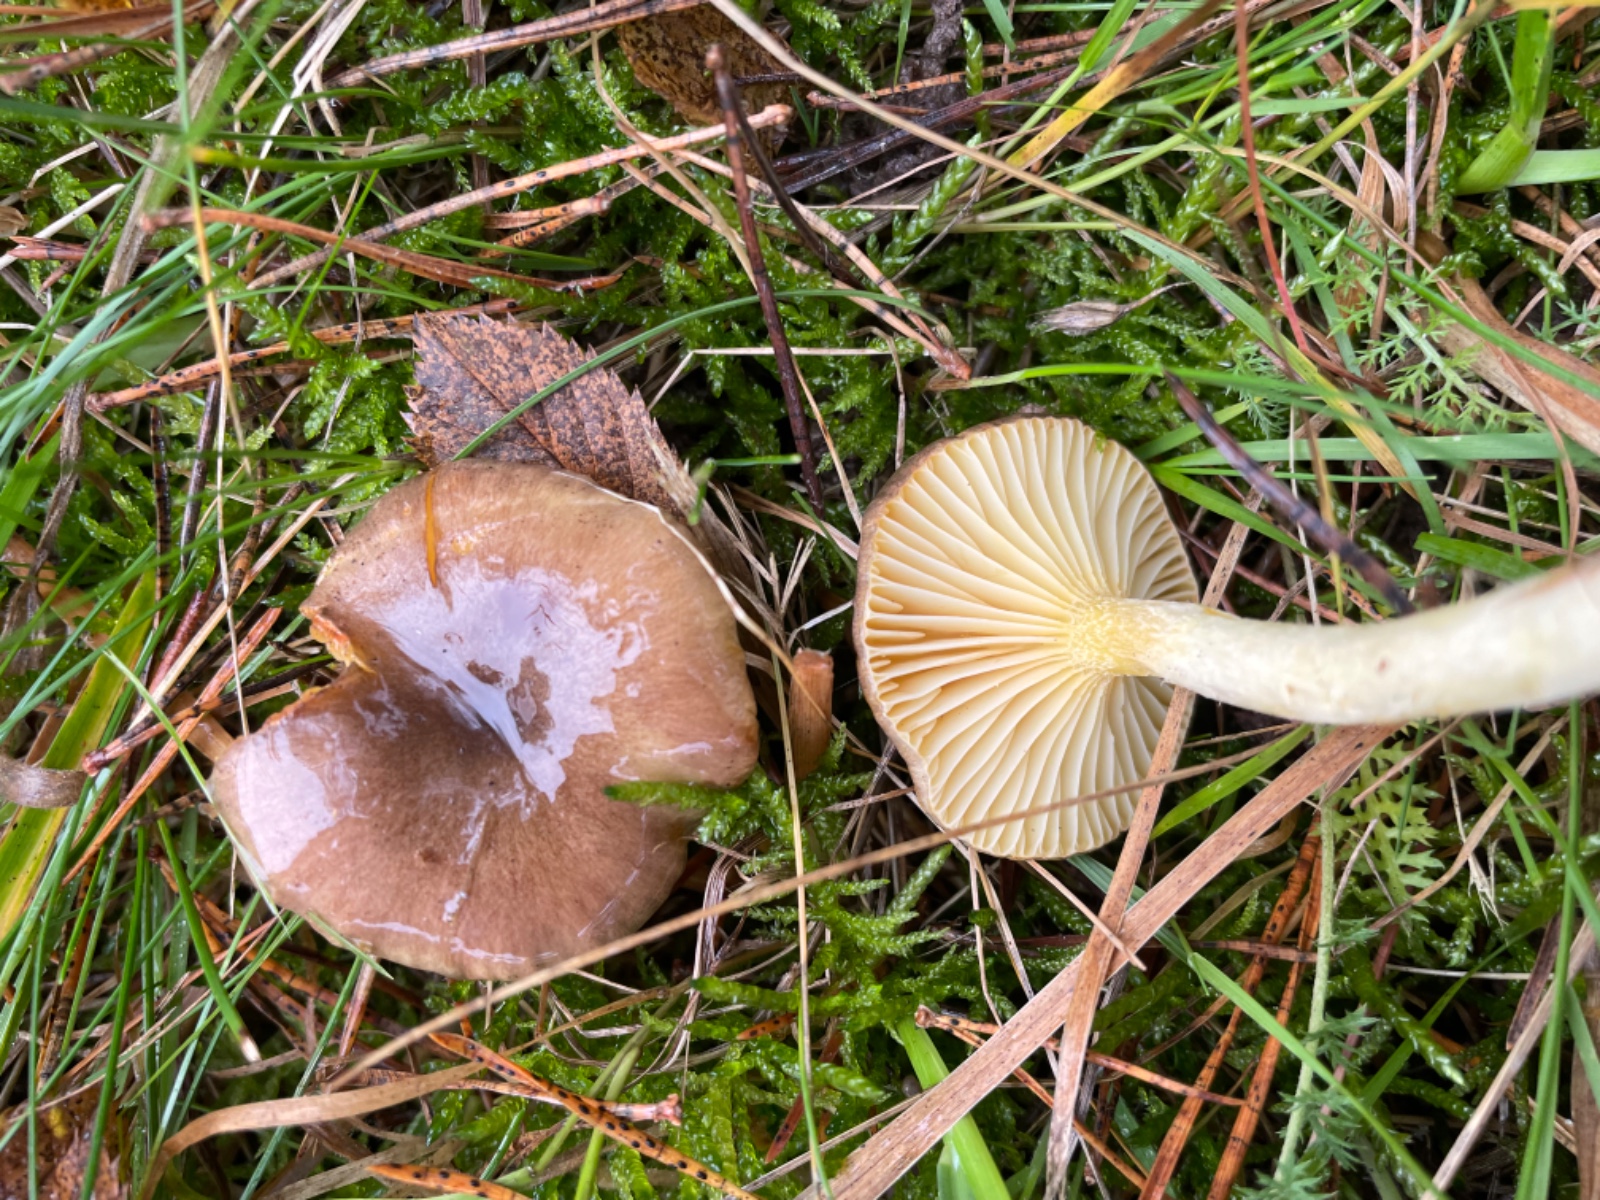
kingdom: Fungi
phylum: Basidiomycota
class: Agaricomycetes
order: Agaricales
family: Hygrophoraceae
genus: Hygrophorus
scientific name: Hygrophorus hypothejus
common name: frost-sneglehat
